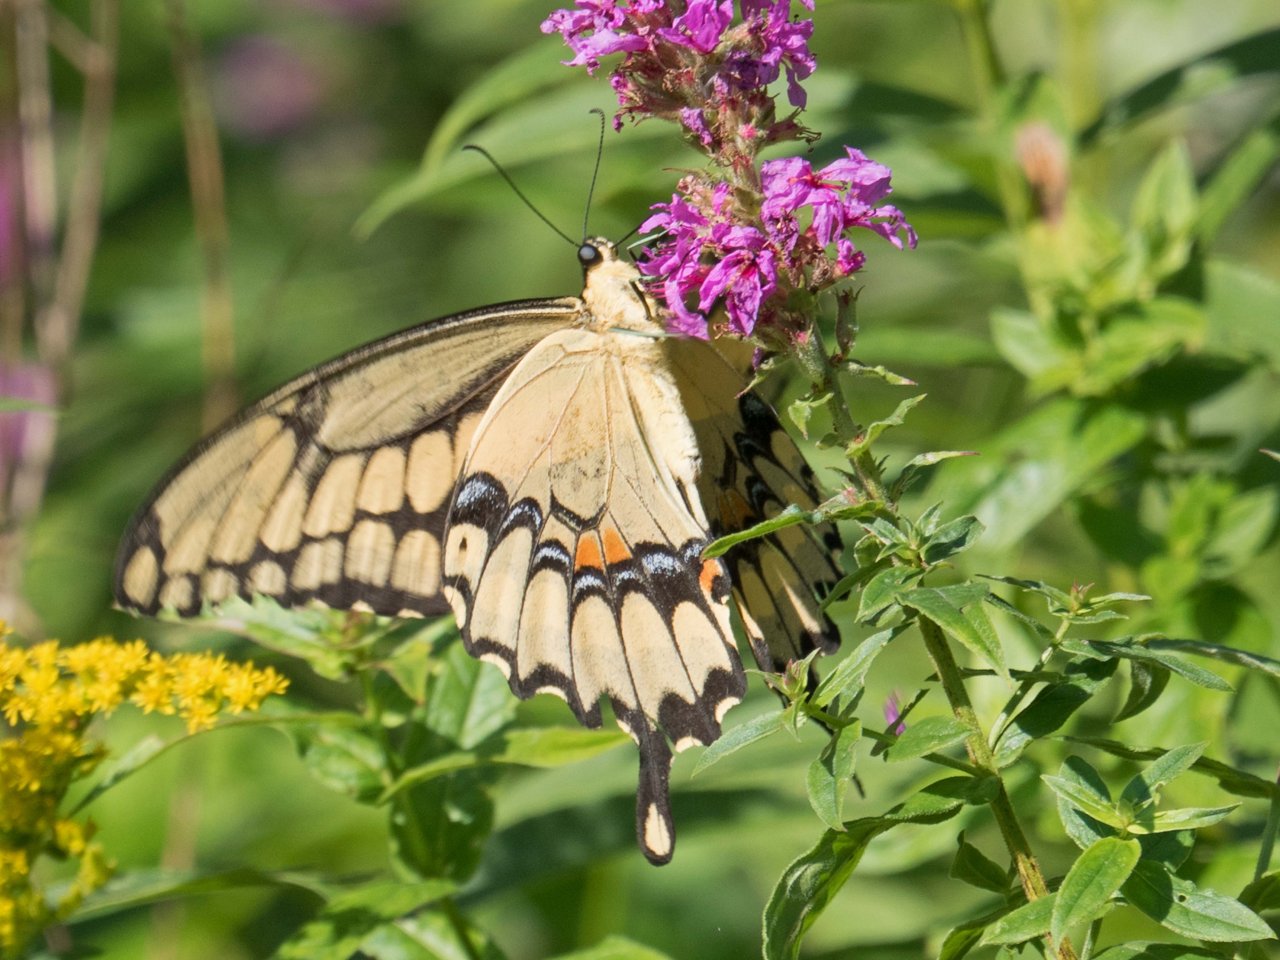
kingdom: Animalia
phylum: Arthropoda
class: Insecta
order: Lepidoptera
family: Papilionidae
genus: Papilio
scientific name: Papilio cresphontes
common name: Eastern Giant Swallowtail
